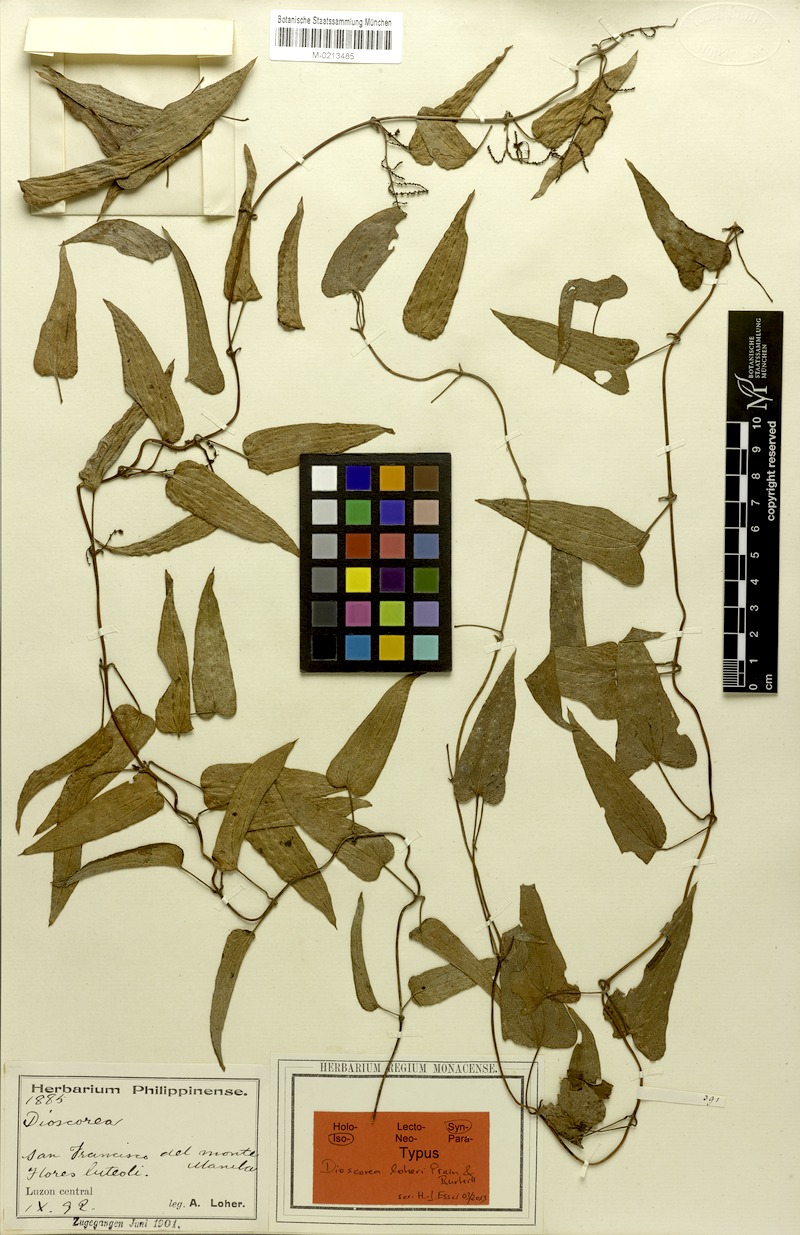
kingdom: Plantae
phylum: Tracheophyta
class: Liliopsida
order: Dioscoreales
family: Dioscoreaceae
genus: Dioscorea
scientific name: Dioscorea loheri
